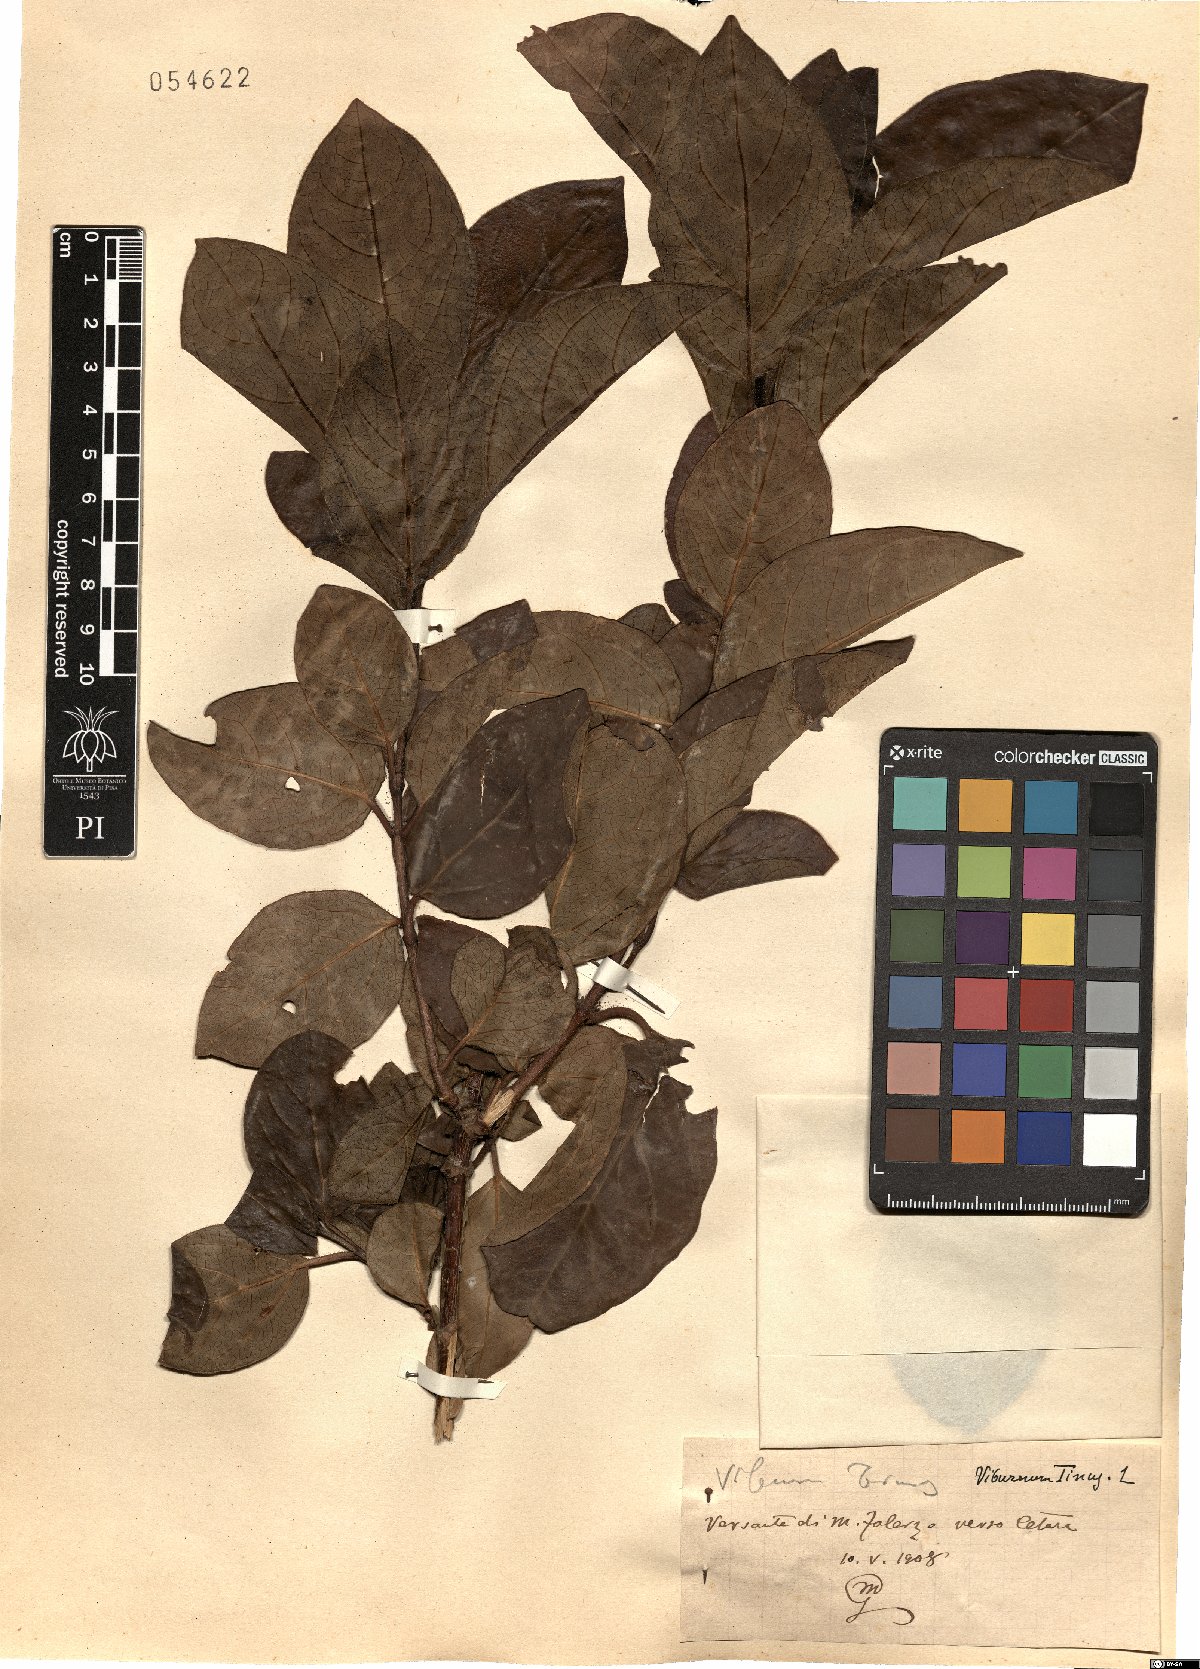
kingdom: Plantae
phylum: Tracheophyta
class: Magnoliopsida
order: Dipsacales
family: Viburnaceae
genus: Viburnum
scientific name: Viburnum tinus
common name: Laurustinus
